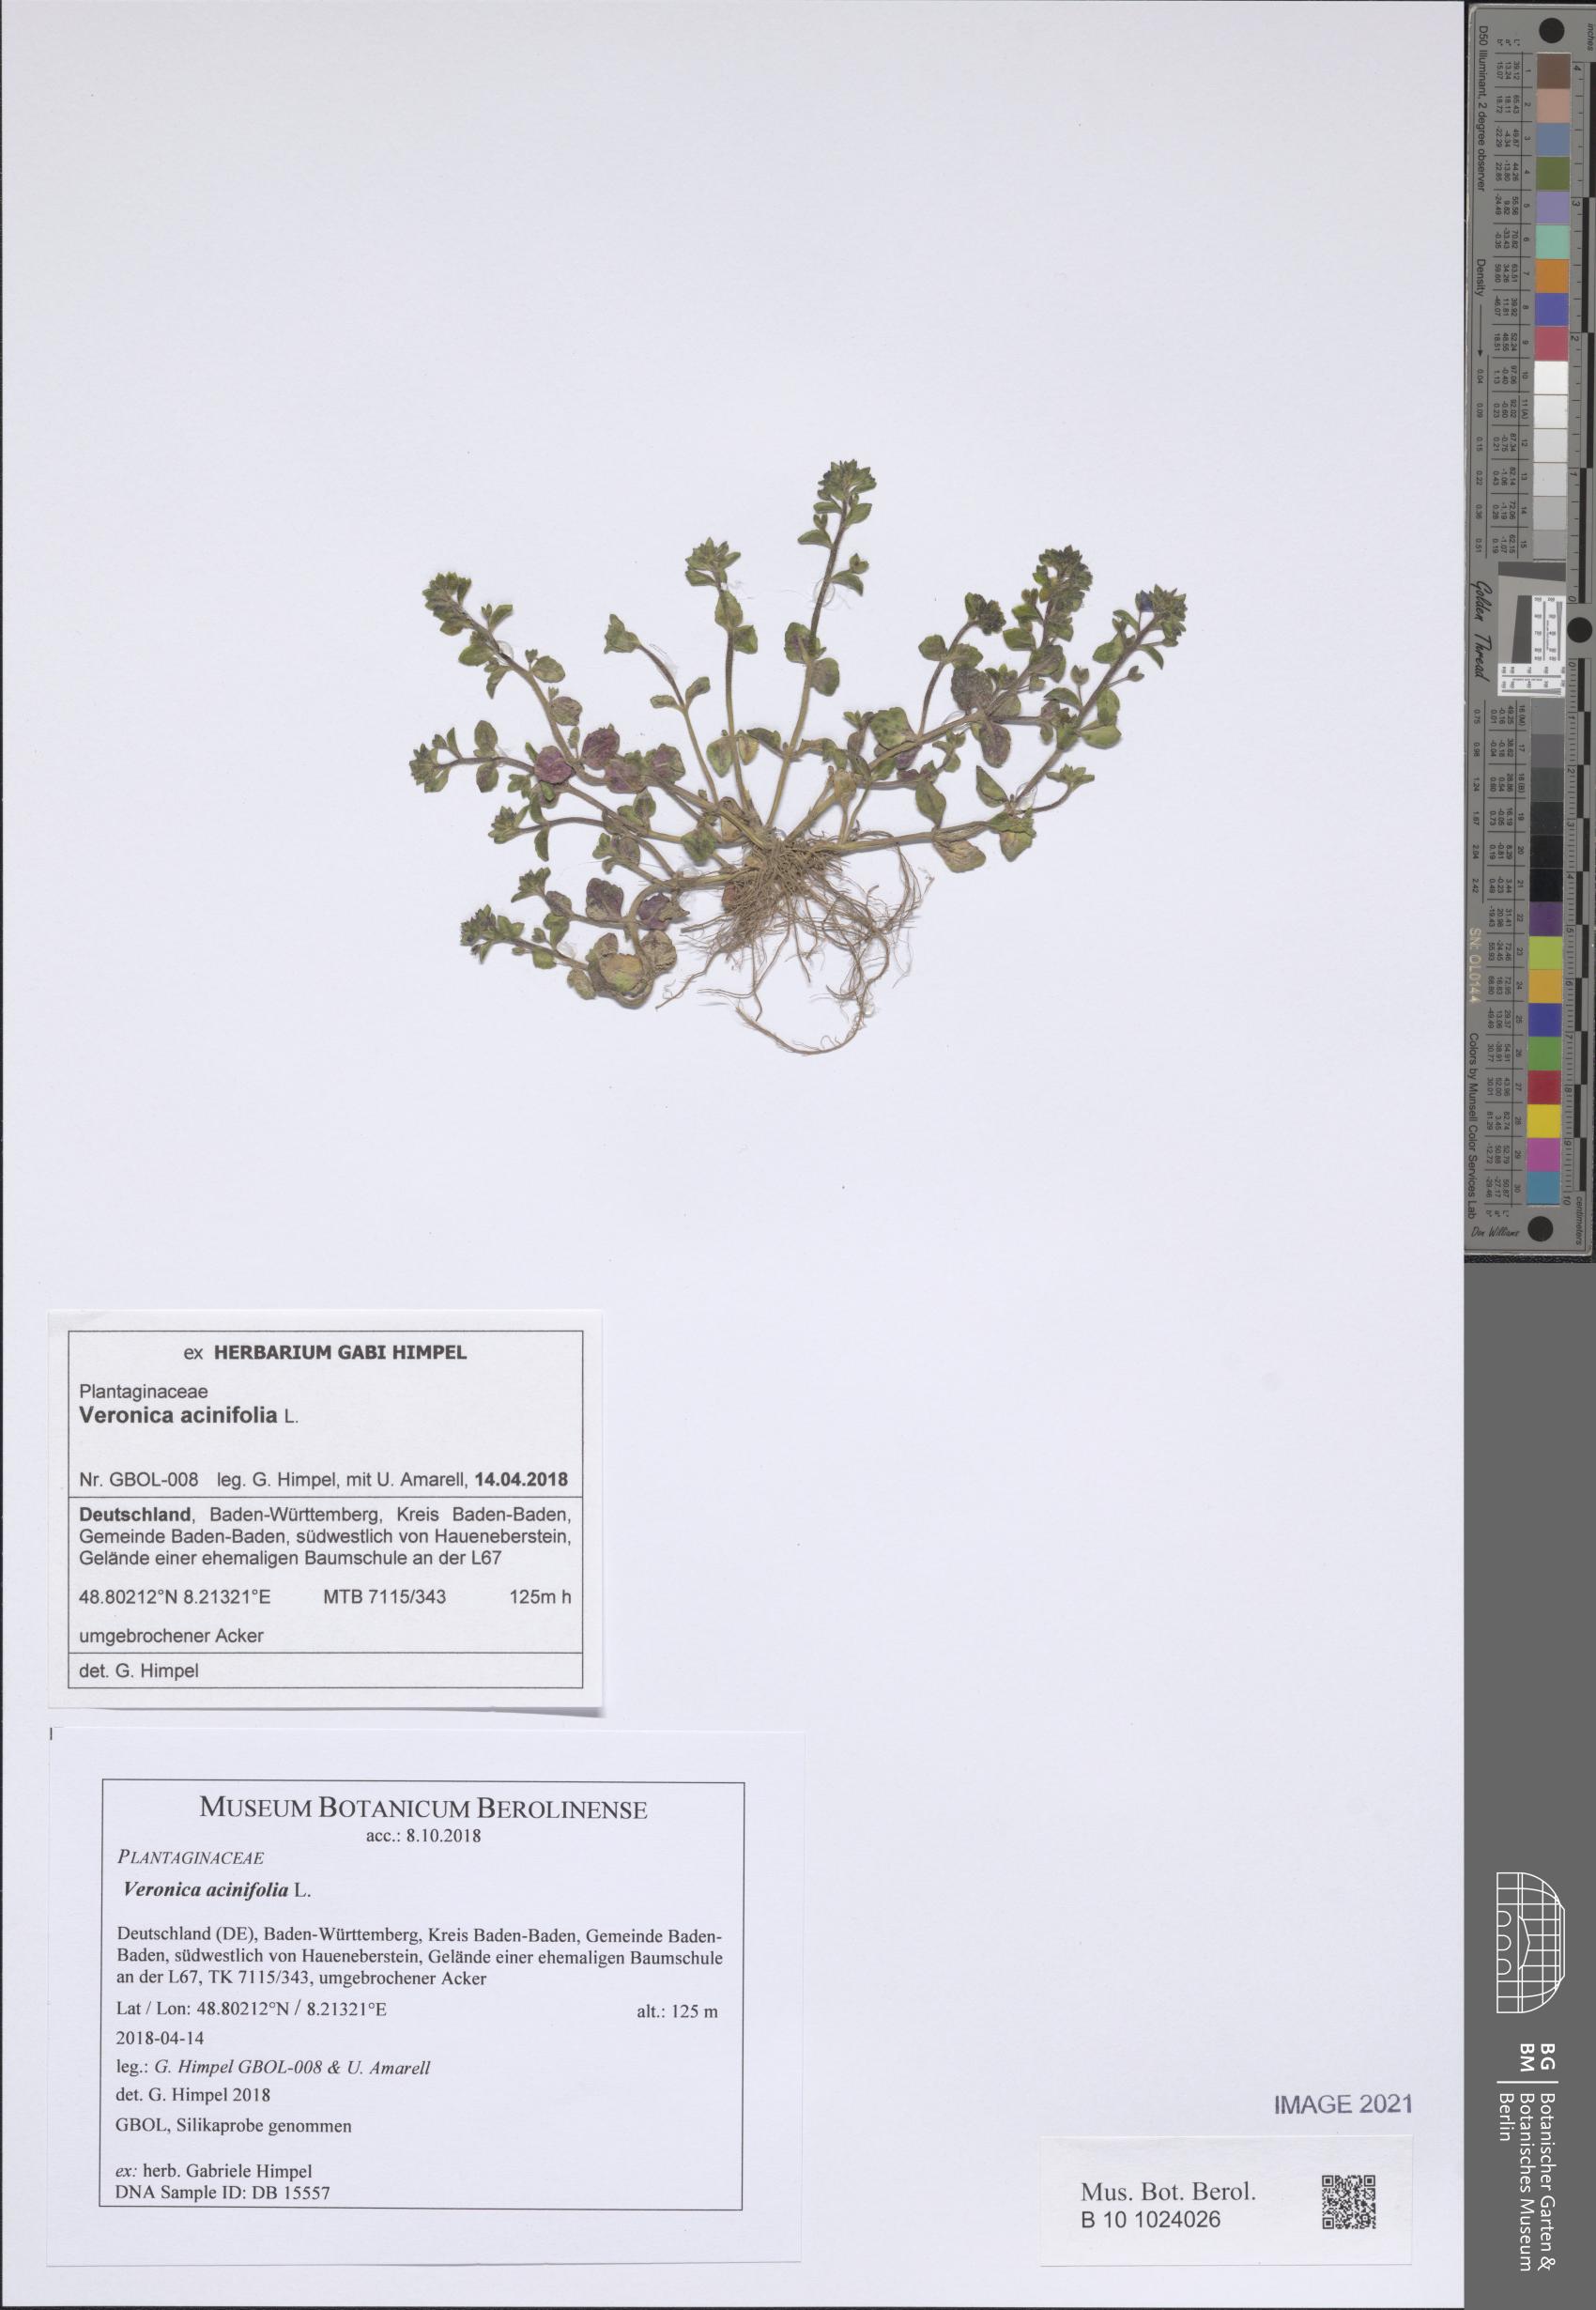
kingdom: Plantae
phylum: Tracheophyta
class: Magnoliopsida
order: Lamiales
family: Plantaginaceae
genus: Veronica
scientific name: Veronica acinifolia
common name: French speedwell
